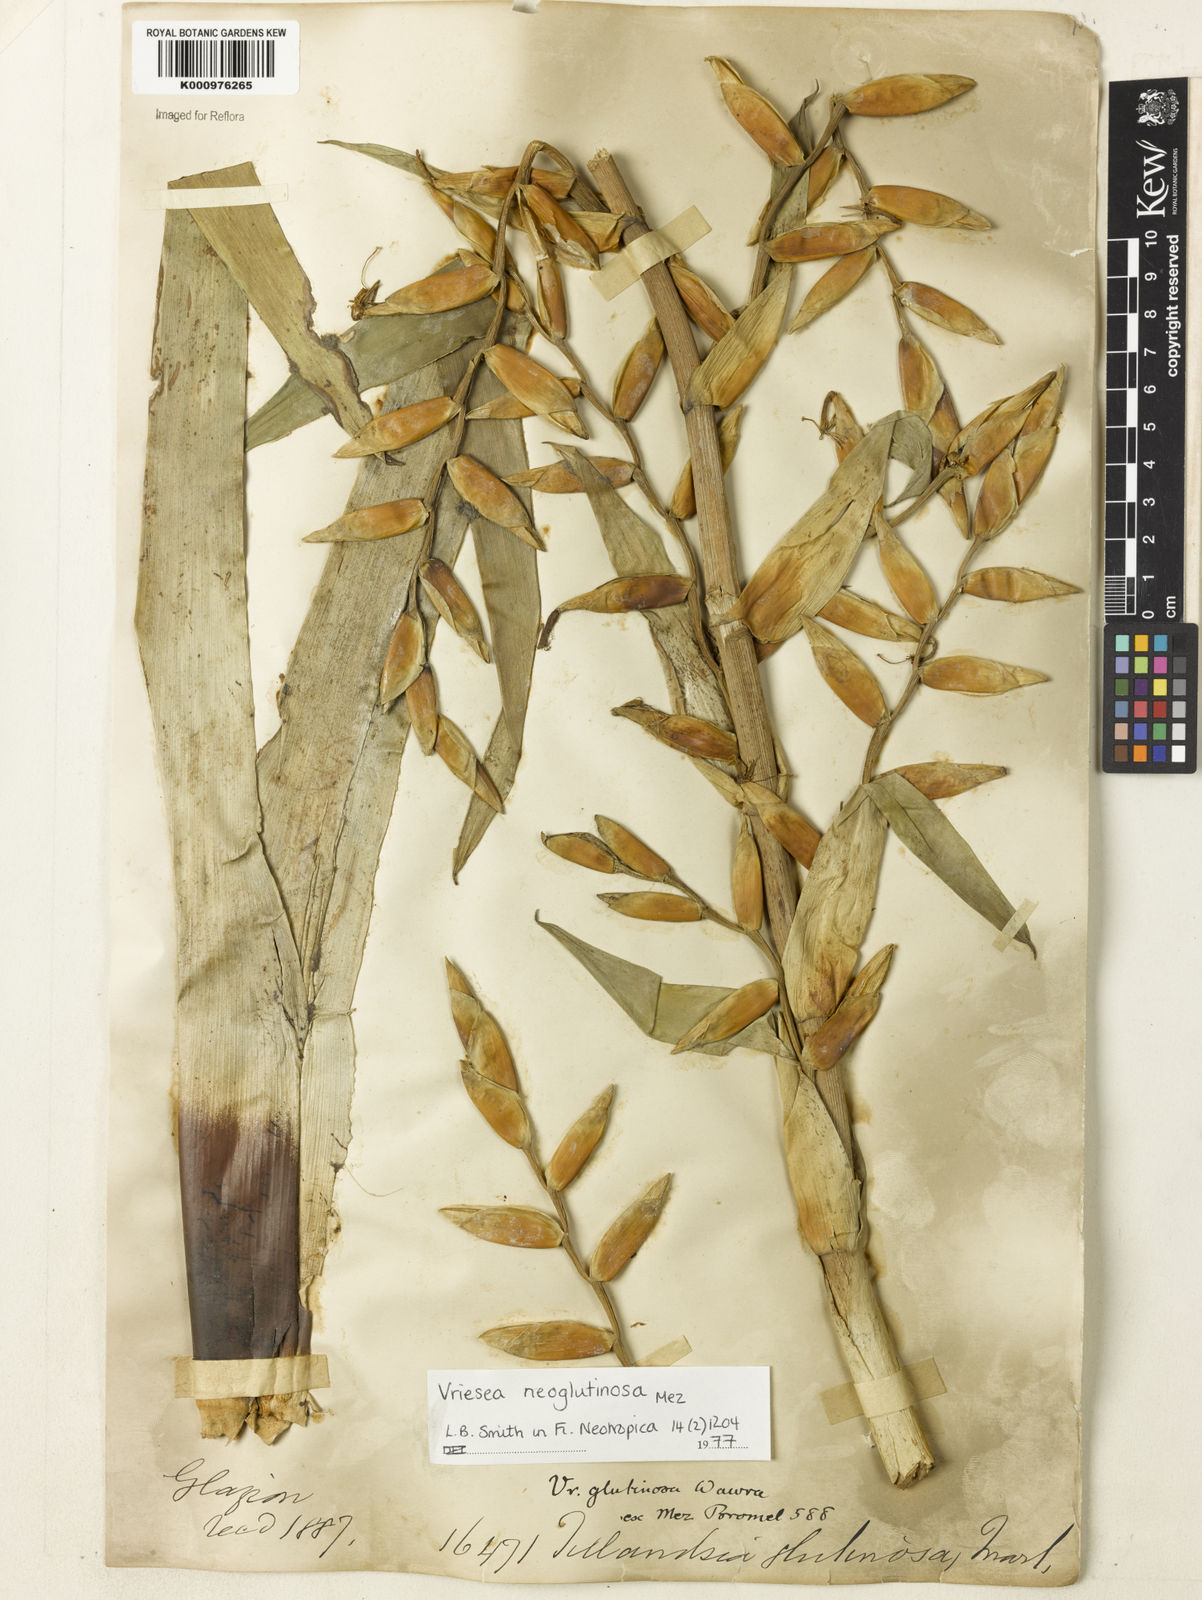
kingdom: Plantae
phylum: Tracheophyta
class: Liliopsida
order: Poales
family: Bromeliaceae
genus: Vriesea
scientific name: Vriesea neoglutinosa
